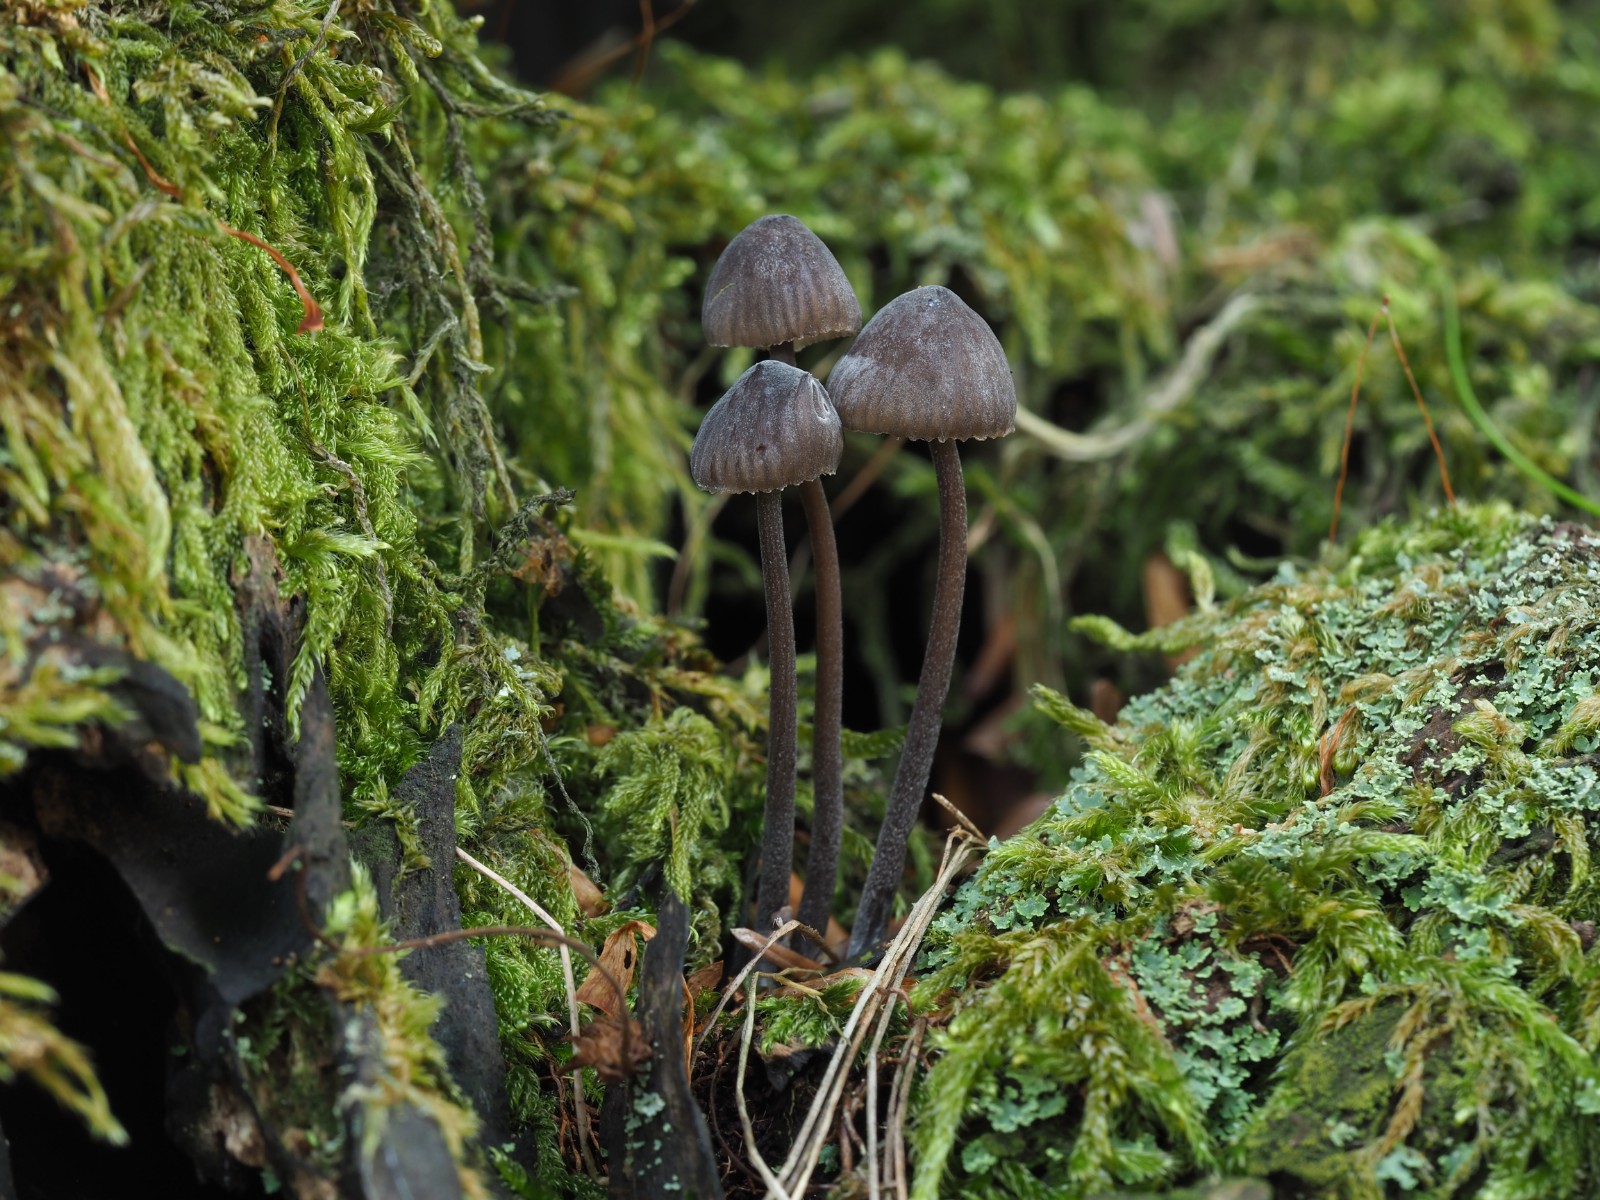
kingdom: Fungi
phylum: Basidiomycota
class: Agaricomycetes
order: Agaricales
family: Mycenaceae
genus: Mycena
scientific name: Mycena galopus
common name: hvidmælket huesvamp
